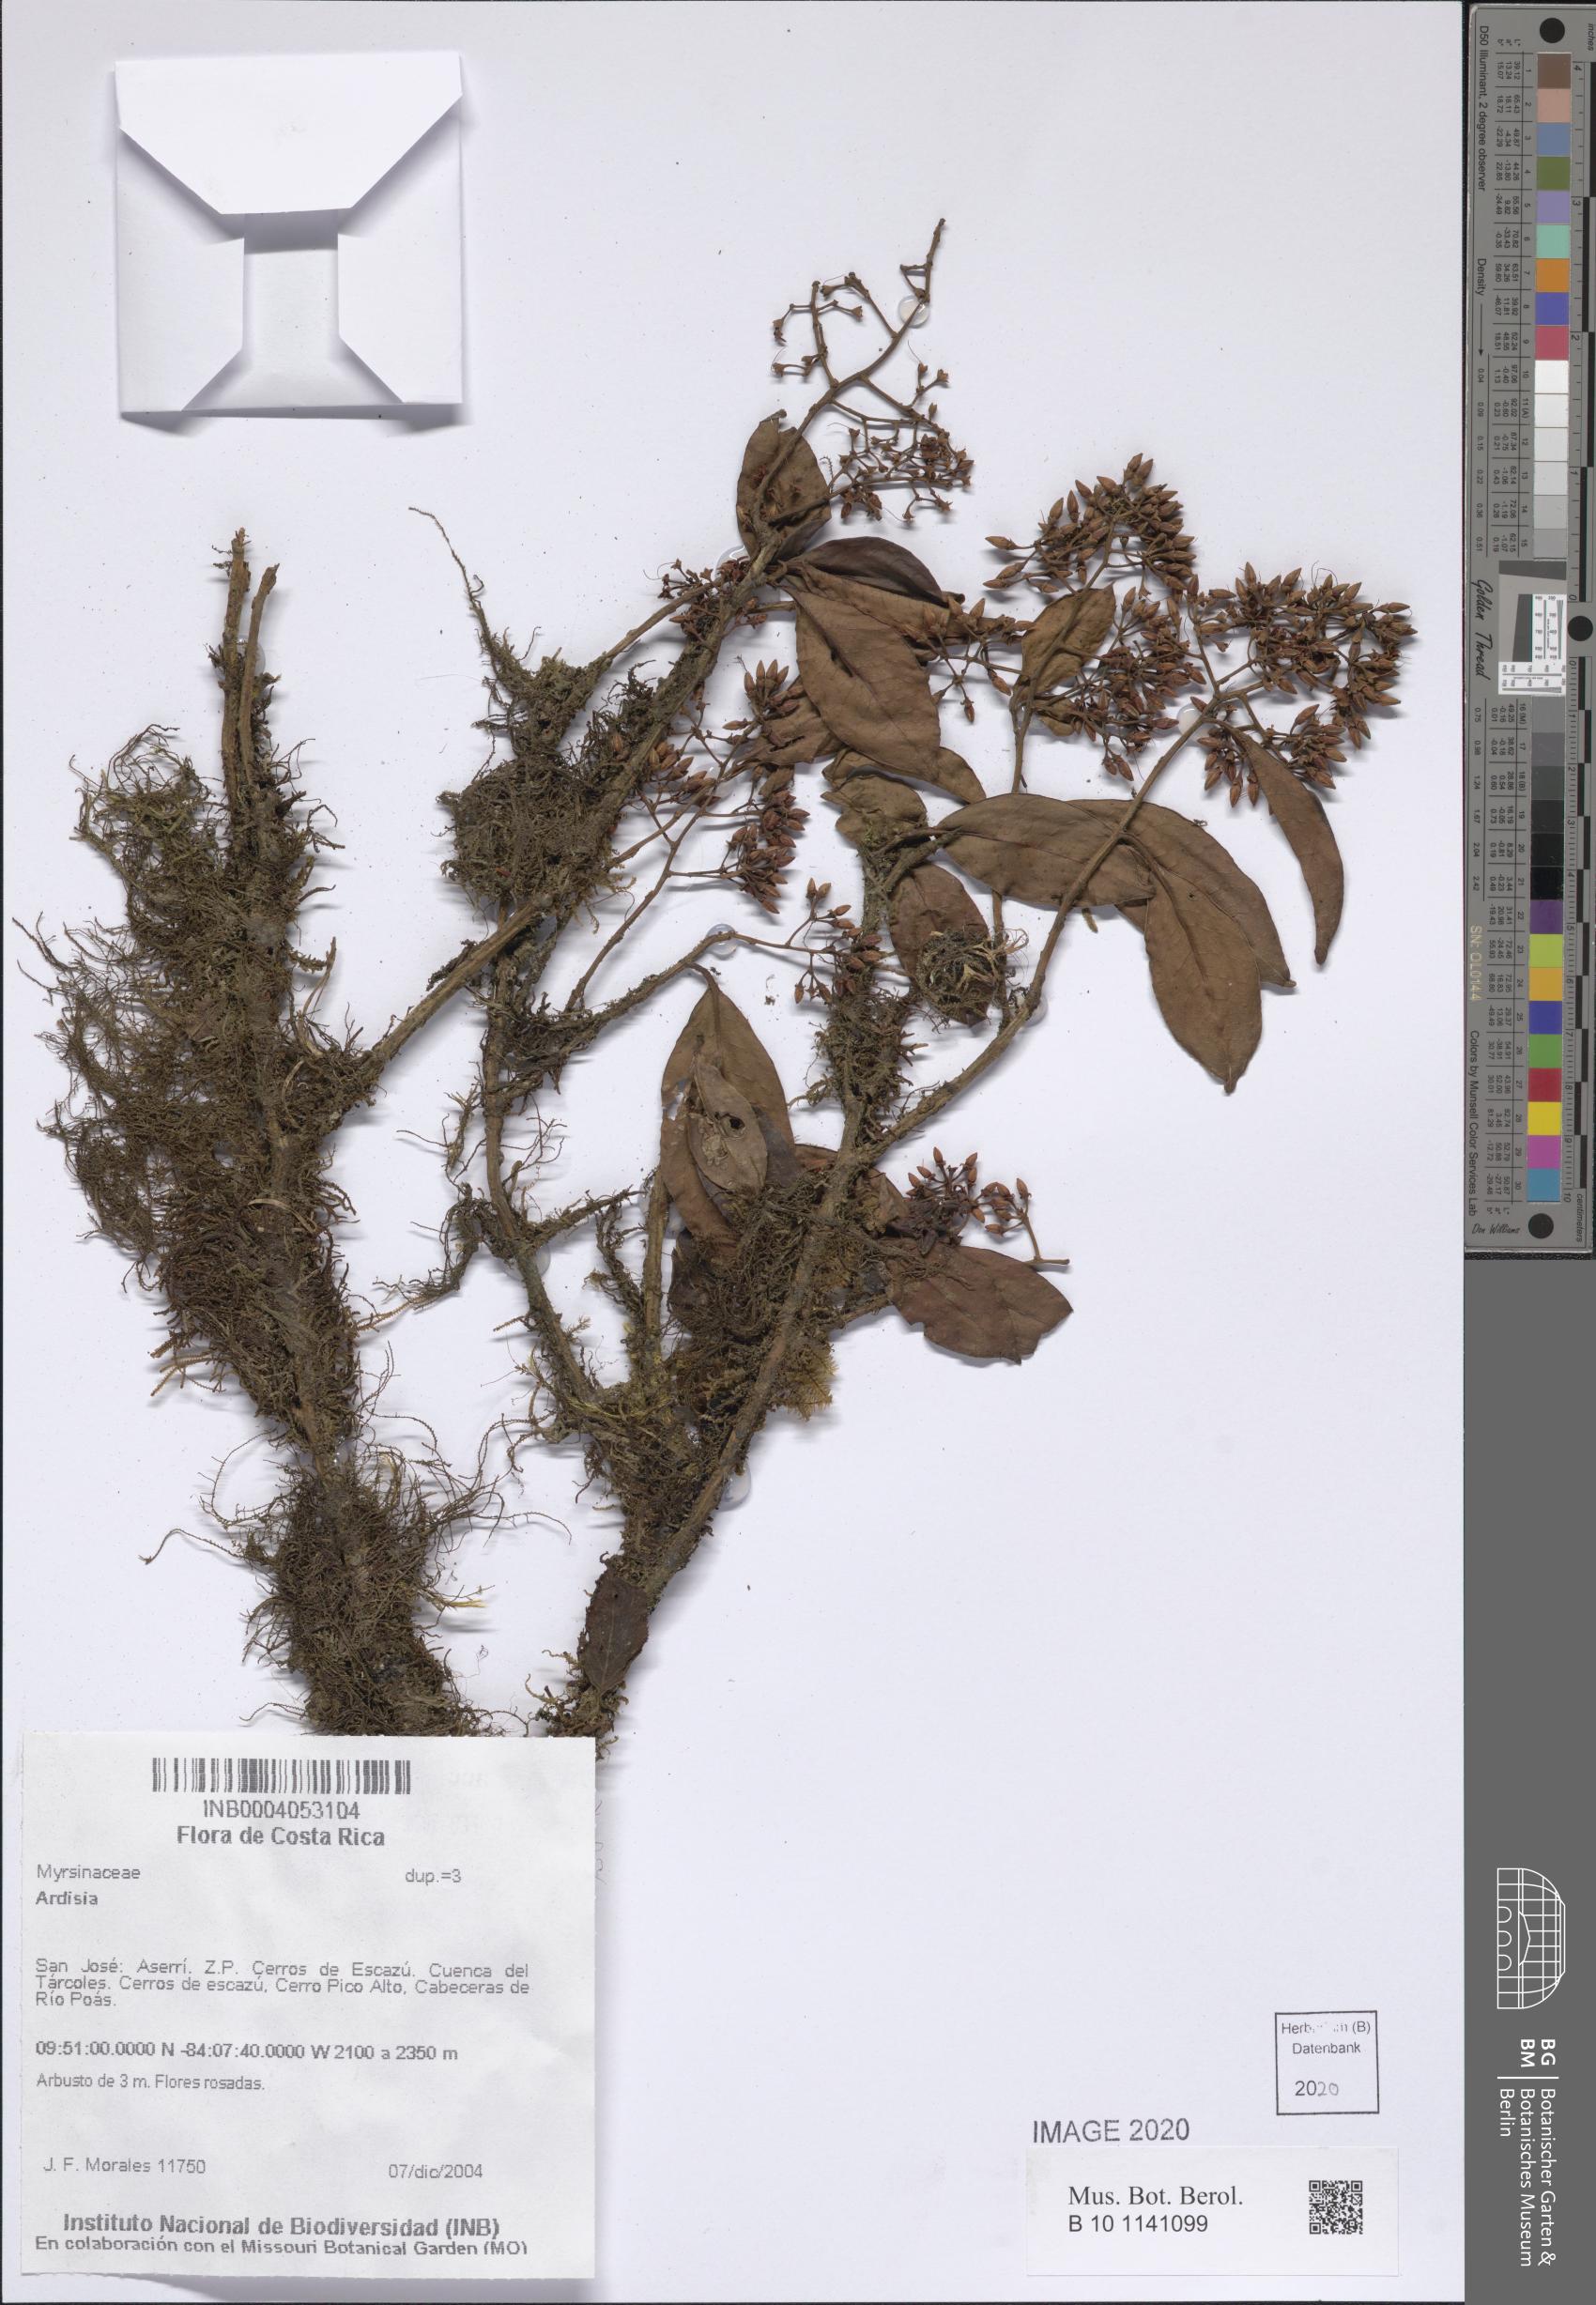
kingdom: Plantae
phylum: Tracheophyta
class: Magnoliopsida
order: Ericales
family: Primulaceae
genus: Ardisia
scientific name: Ardisia
